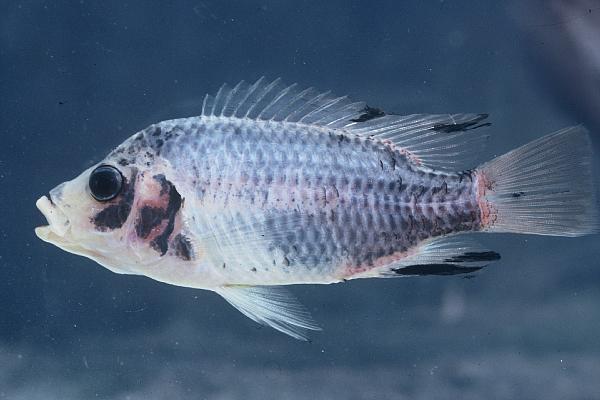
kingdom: Animalia
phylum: Chordata
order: Perciformes
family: Cichlidae
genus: Tilapia
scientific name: Tilapia guinasana
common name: Otjikoto tilapia
